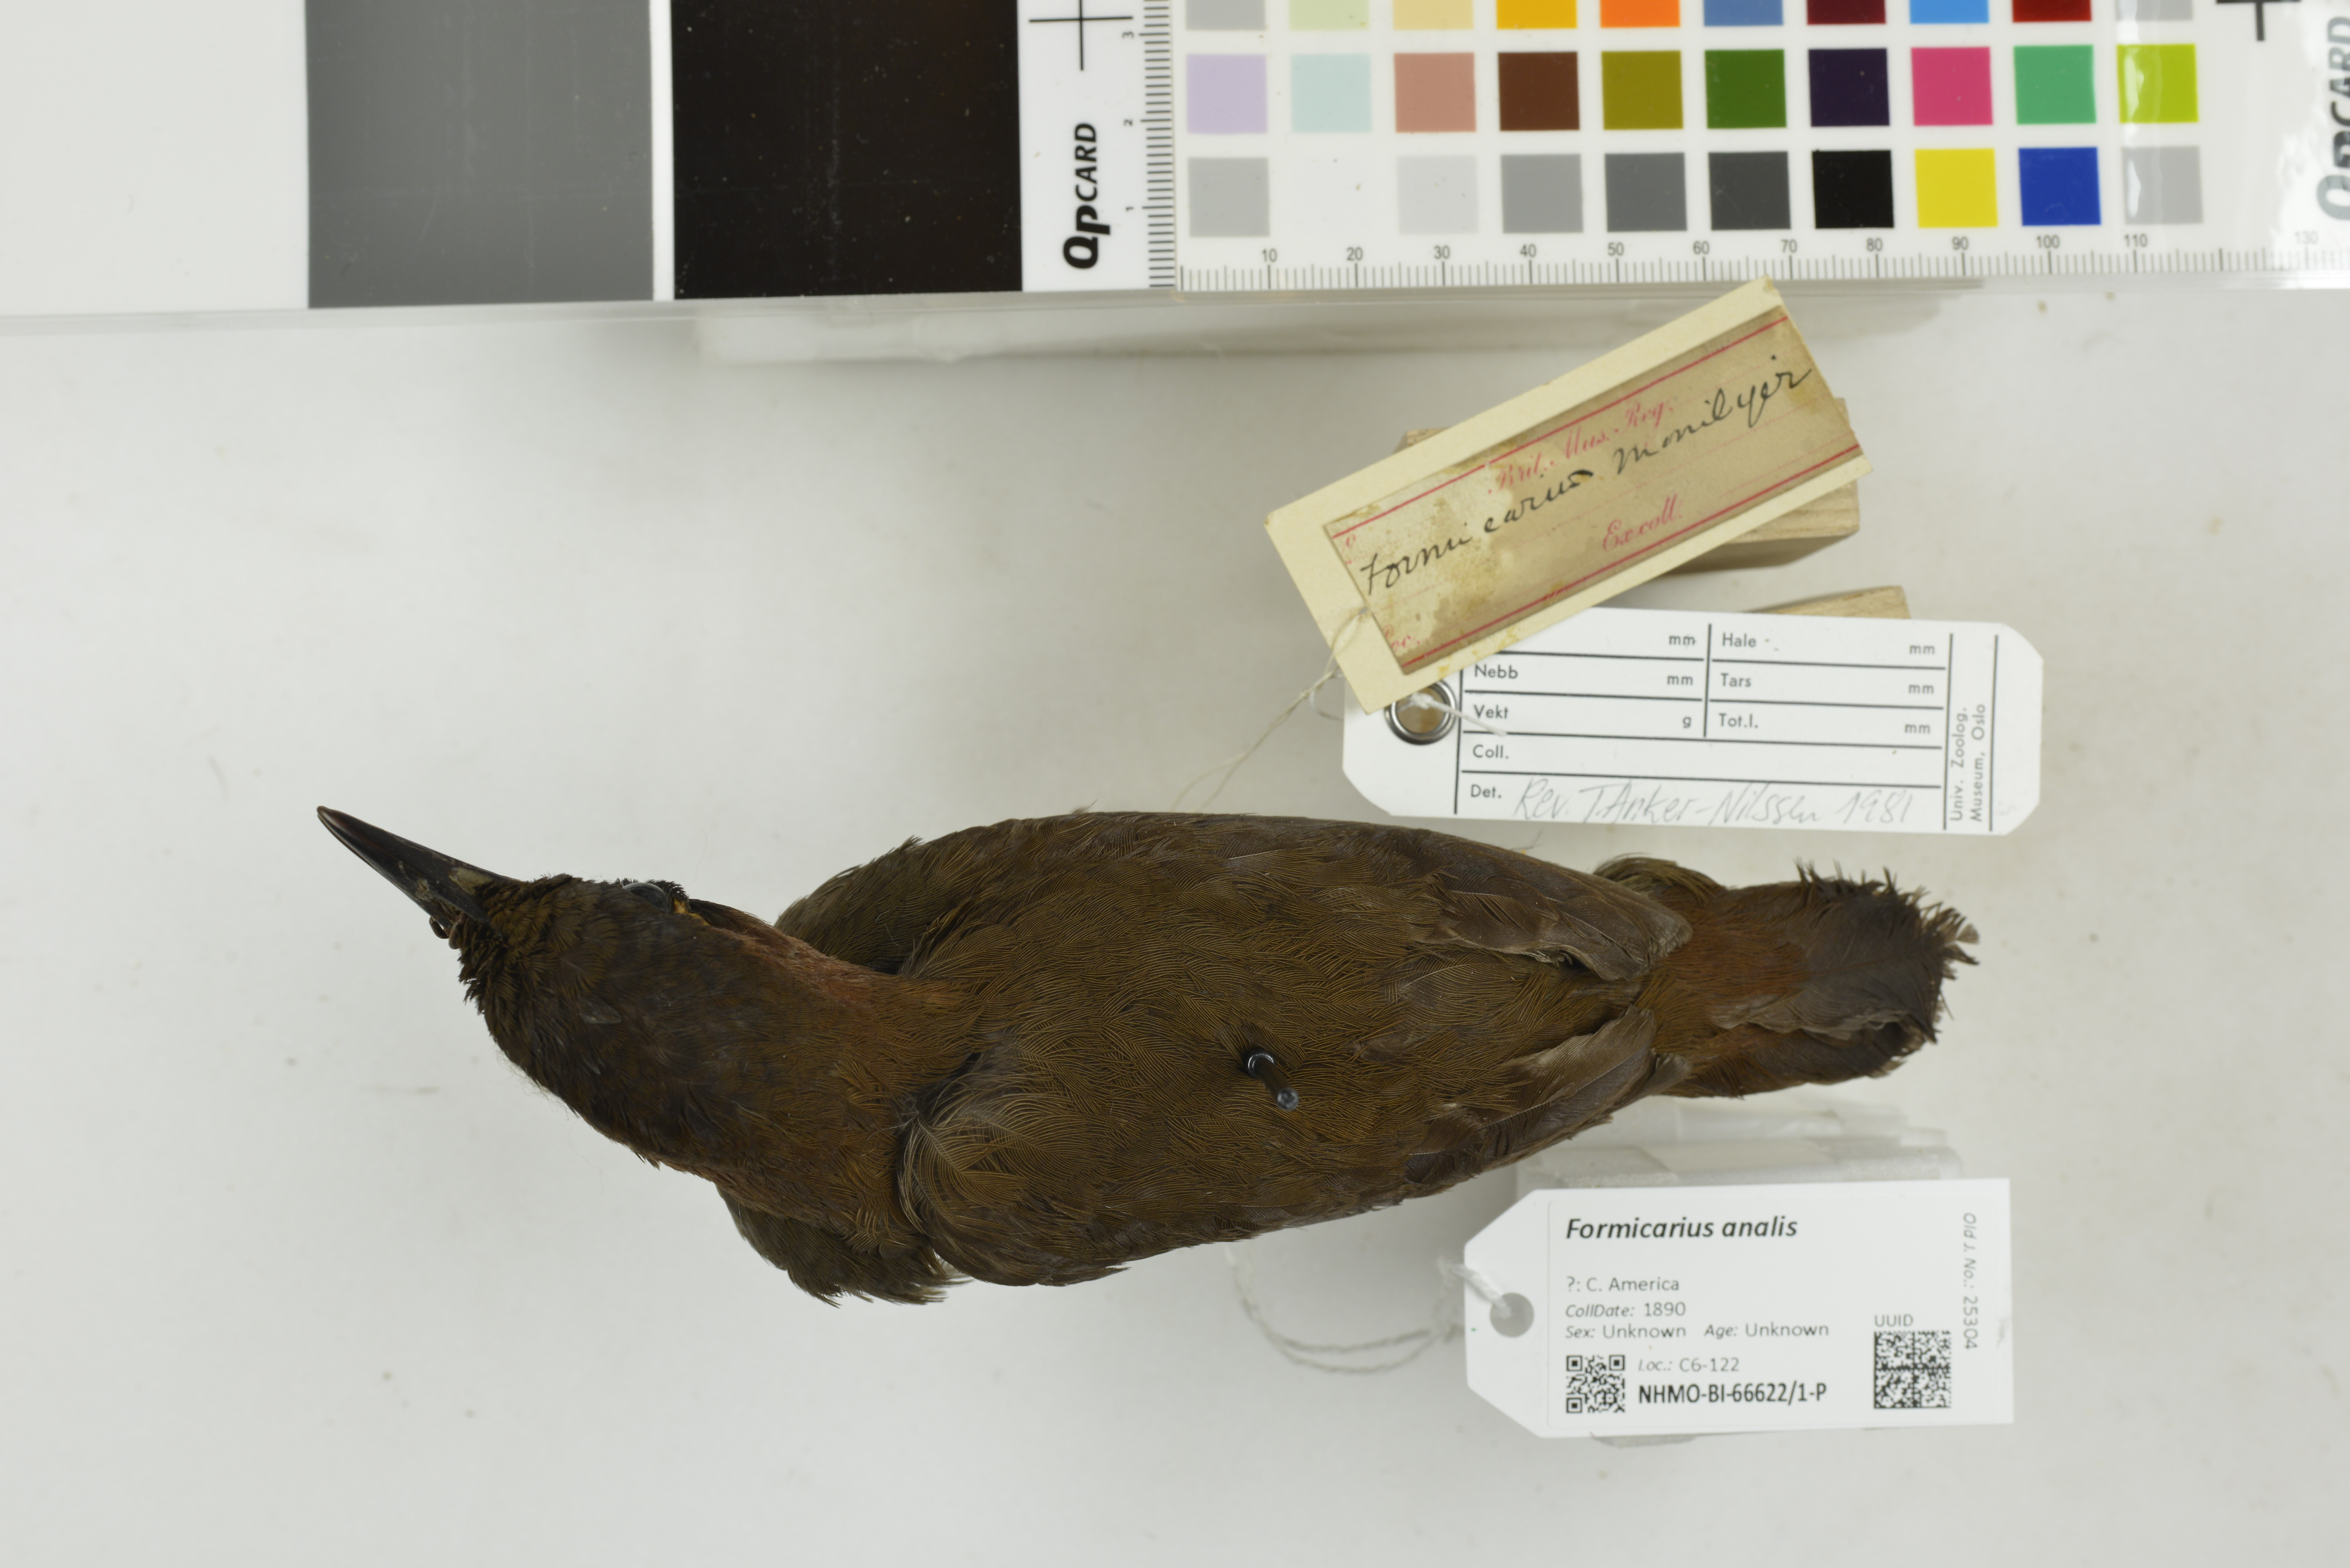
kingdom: Animalia
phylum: Chordata
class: Aves
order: Passeriformes
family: Formicariidae
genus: Formicarius
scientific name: Formicarius analis
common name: Black-faced antthrush
